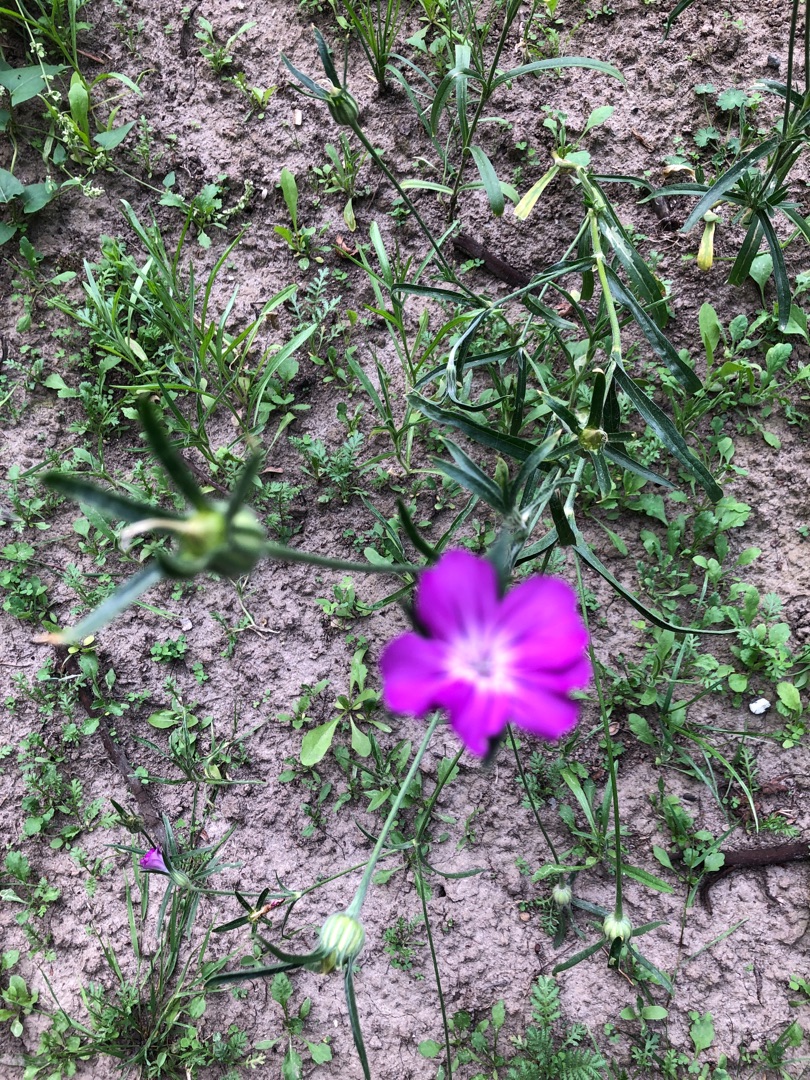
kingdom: Plantae
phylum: Tracheophyta
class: Magnoliopsida
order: Caryophyllales
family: Caryophyllaceae
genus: Agrostemma
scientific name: Agrostemma githago
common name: Klinte
